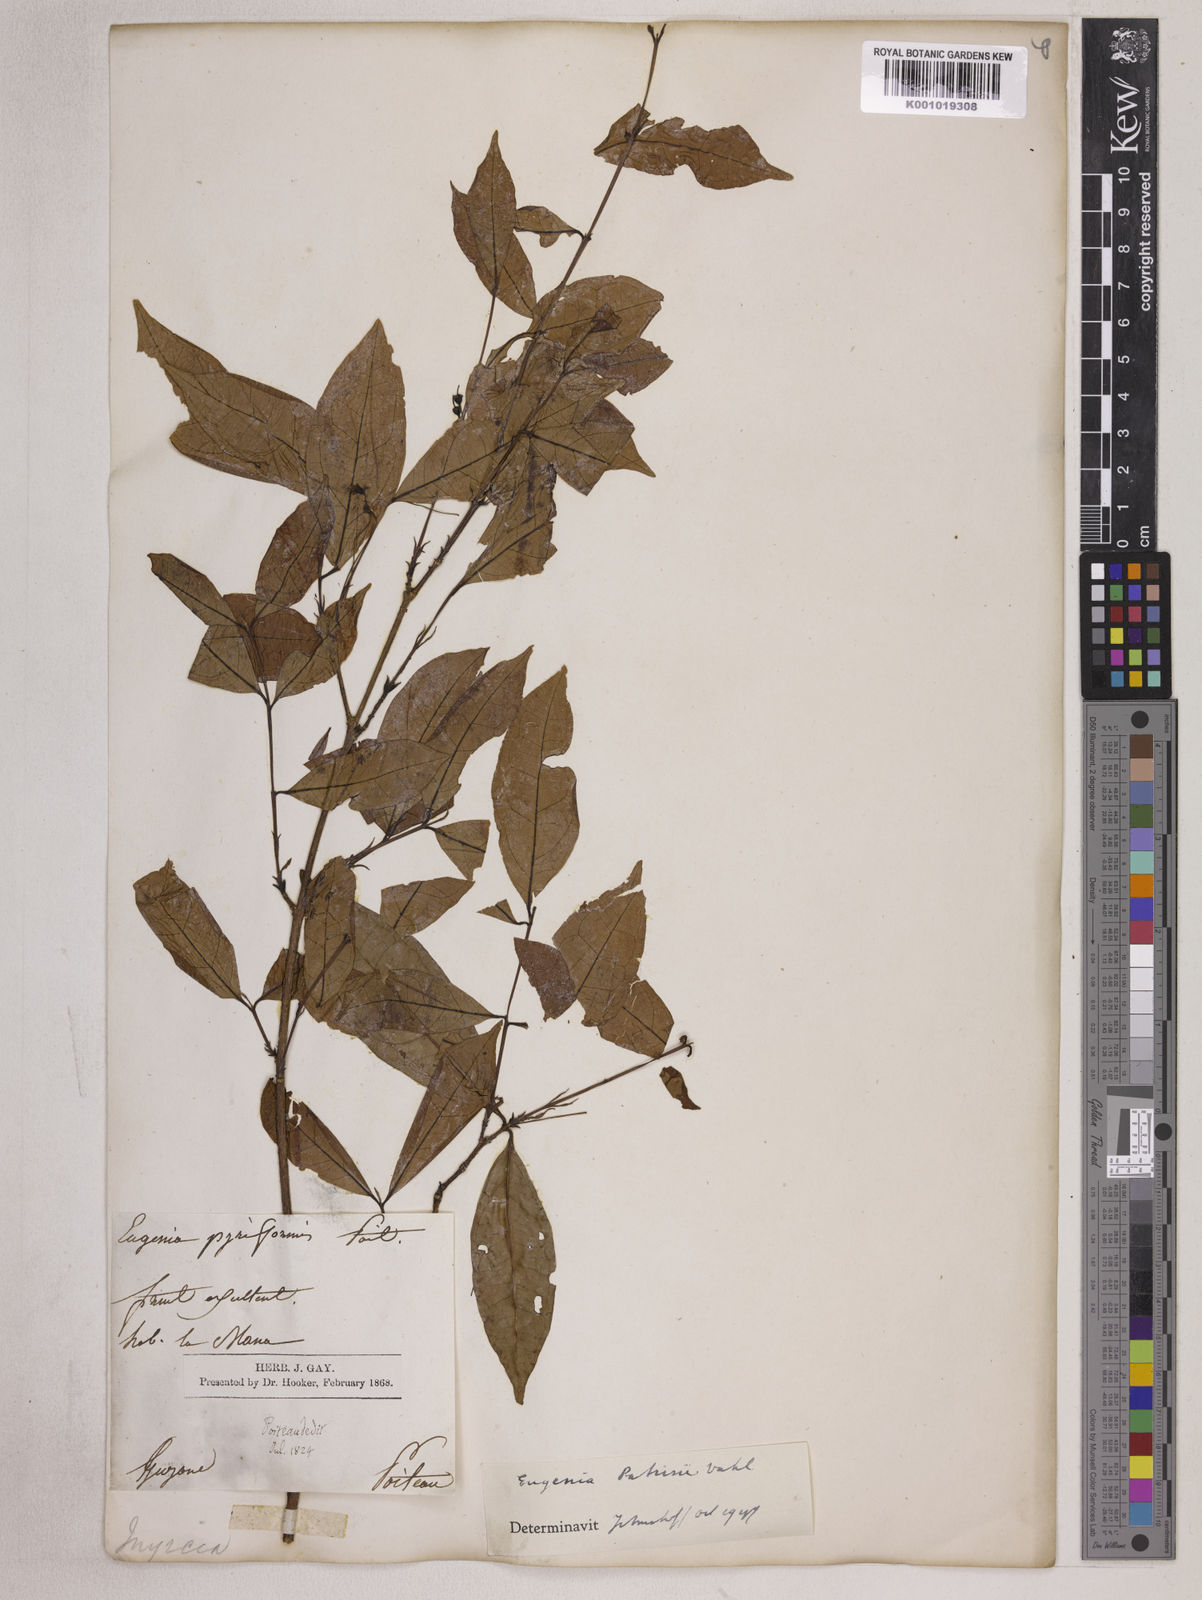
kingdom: Plantae
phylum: Tracheophyta
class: Magnoliopsida
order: Myrtales
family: Myrtaceae
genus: Eugenia
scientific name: Eugenia patrisii
